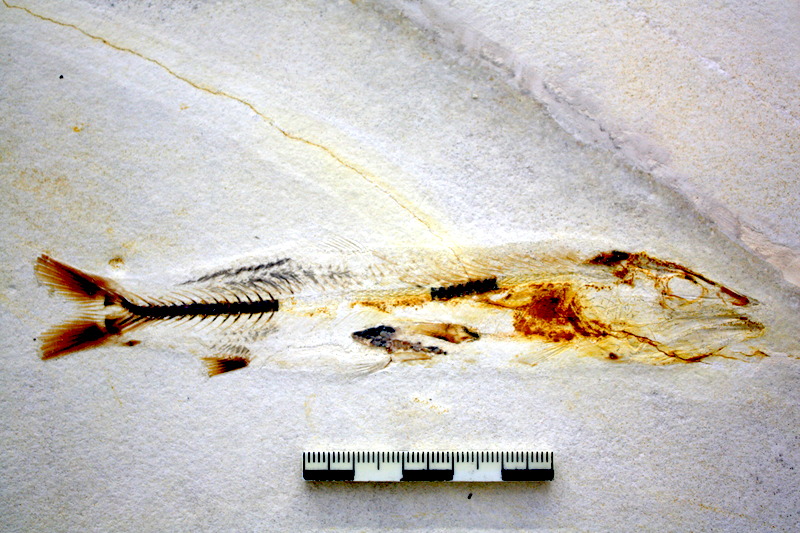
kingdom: Animalia
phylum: Chordata
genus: Bavarichthys
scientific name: Bavarichthys incognitus
